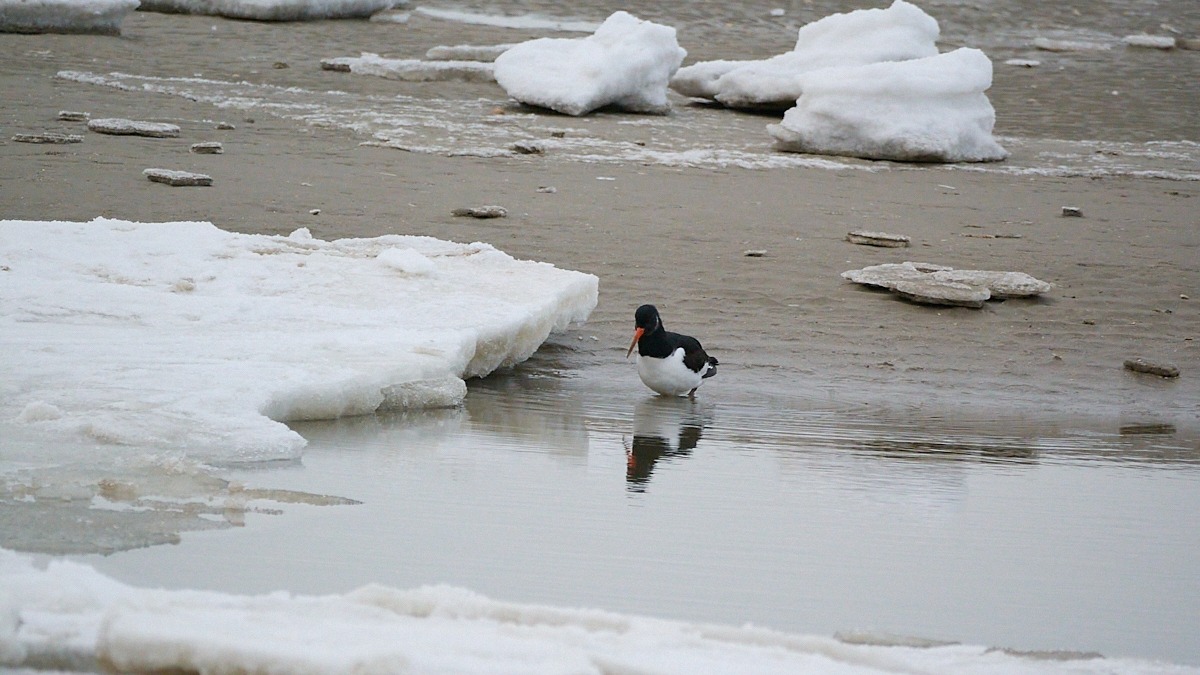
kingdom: Animalia
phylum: Chordata
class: Aves
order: Charadriiformes
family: Haematopodidae
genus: Haematopus
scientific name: Haematopus ostralegus
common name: Strandskade
